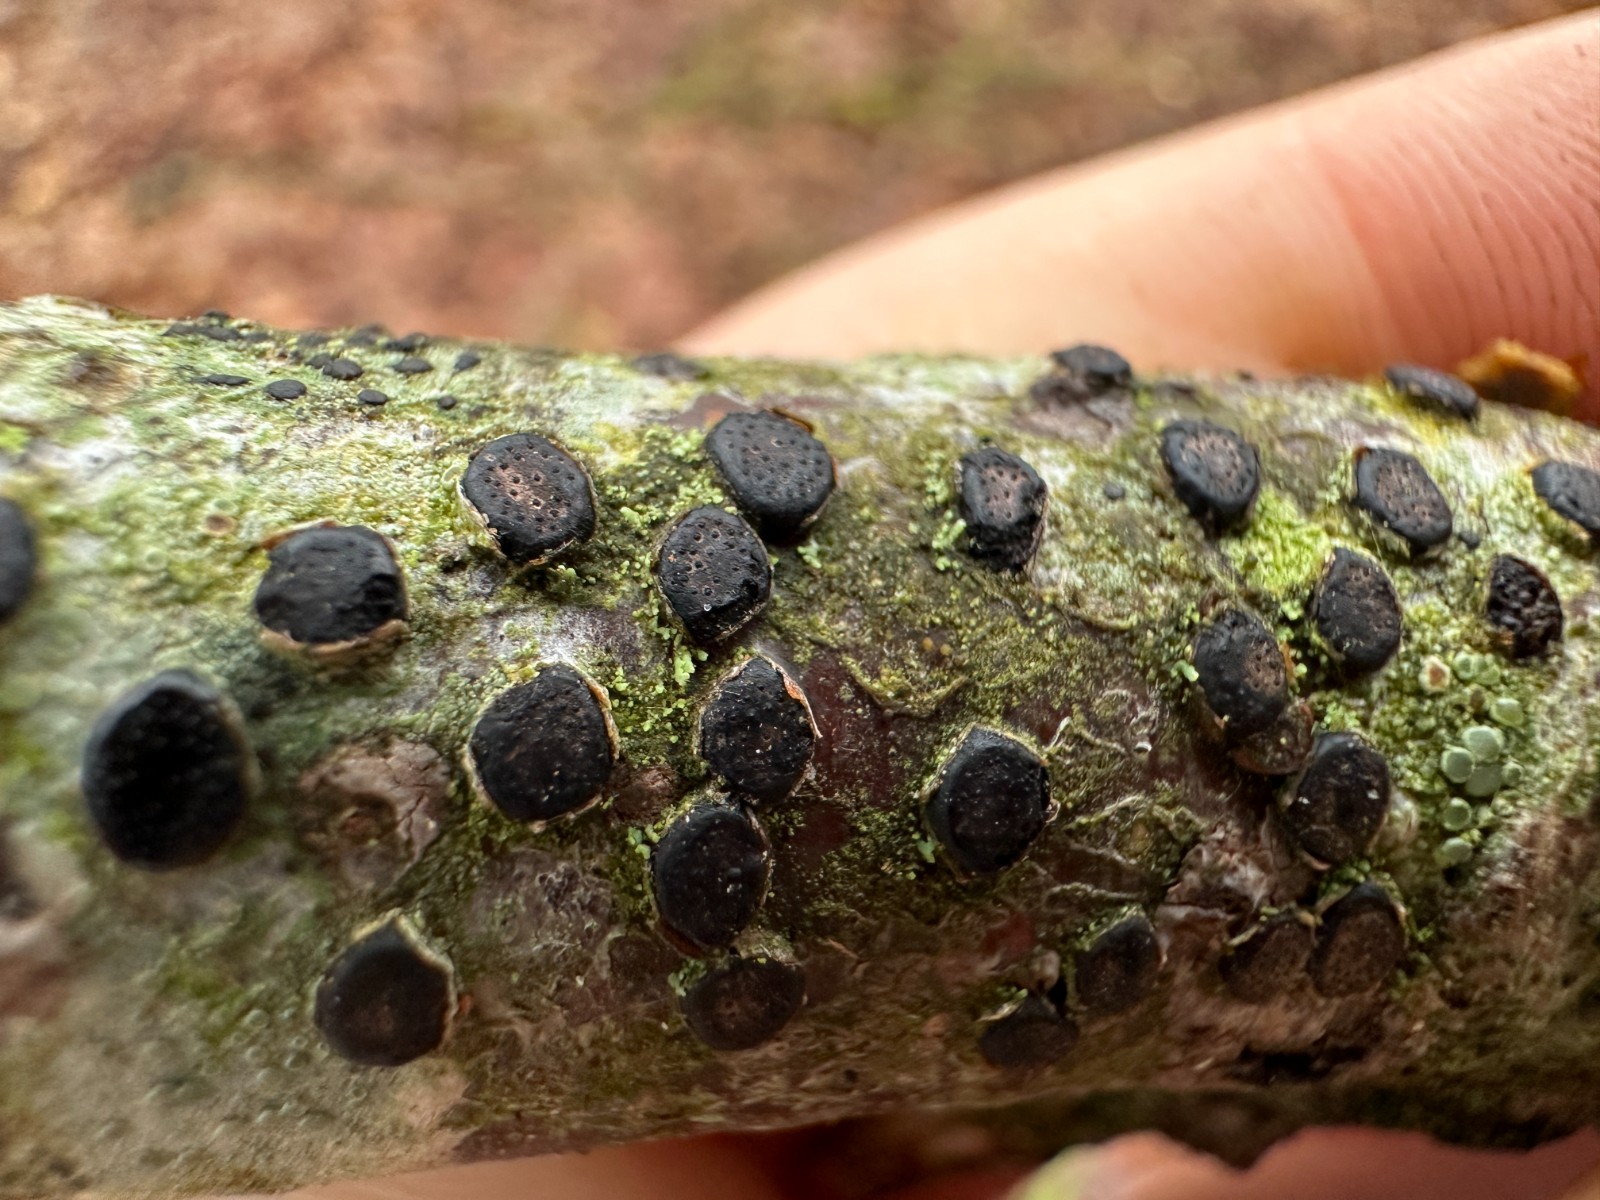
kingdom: Fungi
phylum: Ascomycota
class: Sordariomycetes
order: Xylariales
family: Diatrypaceae
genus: Diatrype
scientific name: Diatrype disciformis
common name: kant-kulskorpe
